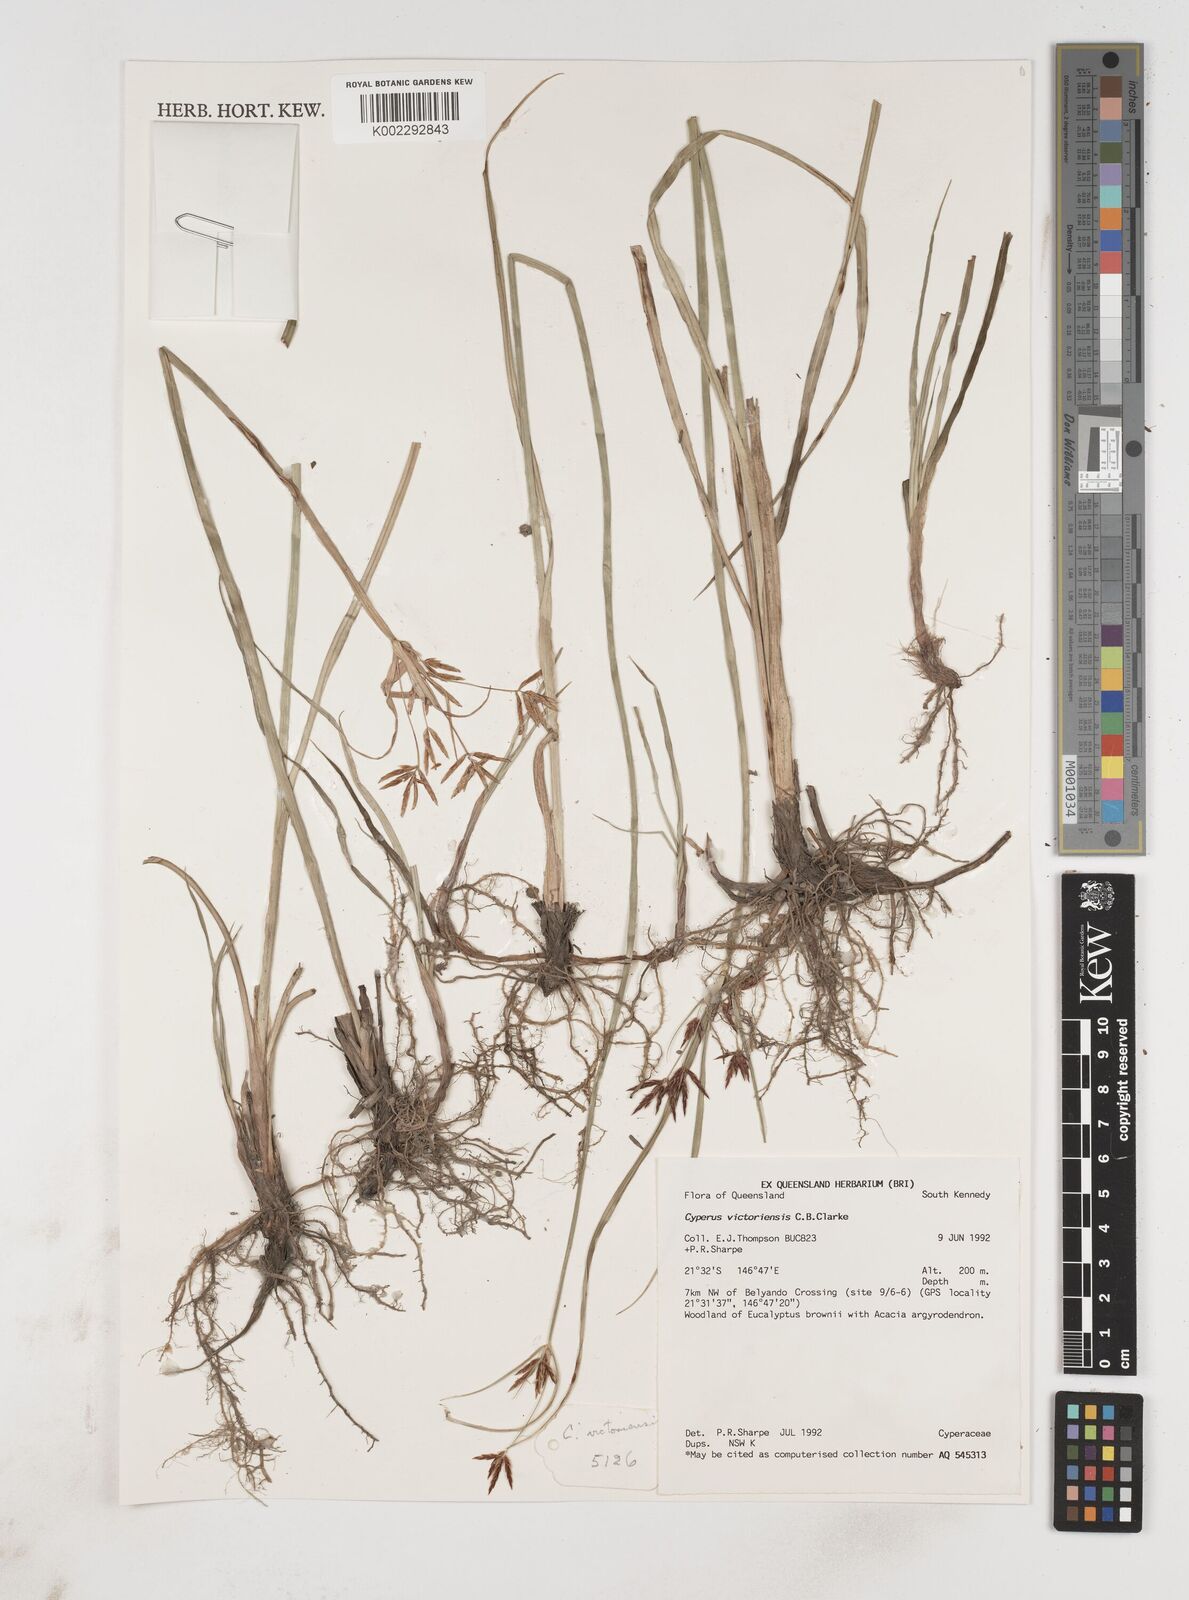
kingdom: Plantae
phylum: Tracheophyta
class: Liliopsida
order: Poales
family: Cyperaceae
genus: Cyperus
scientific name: Cyperus victoriensis
